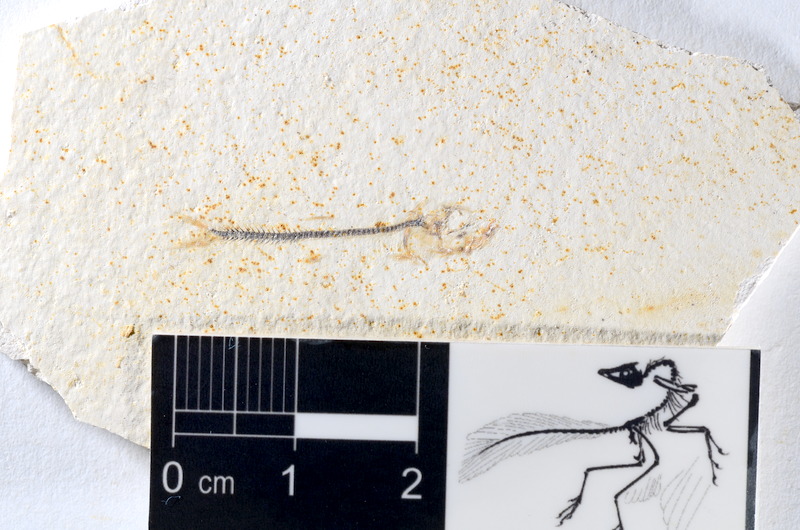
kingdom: Animalia
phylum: Chordata
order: Salmoniformes
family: Orthogonikleithridae
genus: Orthogonikleithrus
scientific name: Orthogonikleithrus hoelli
